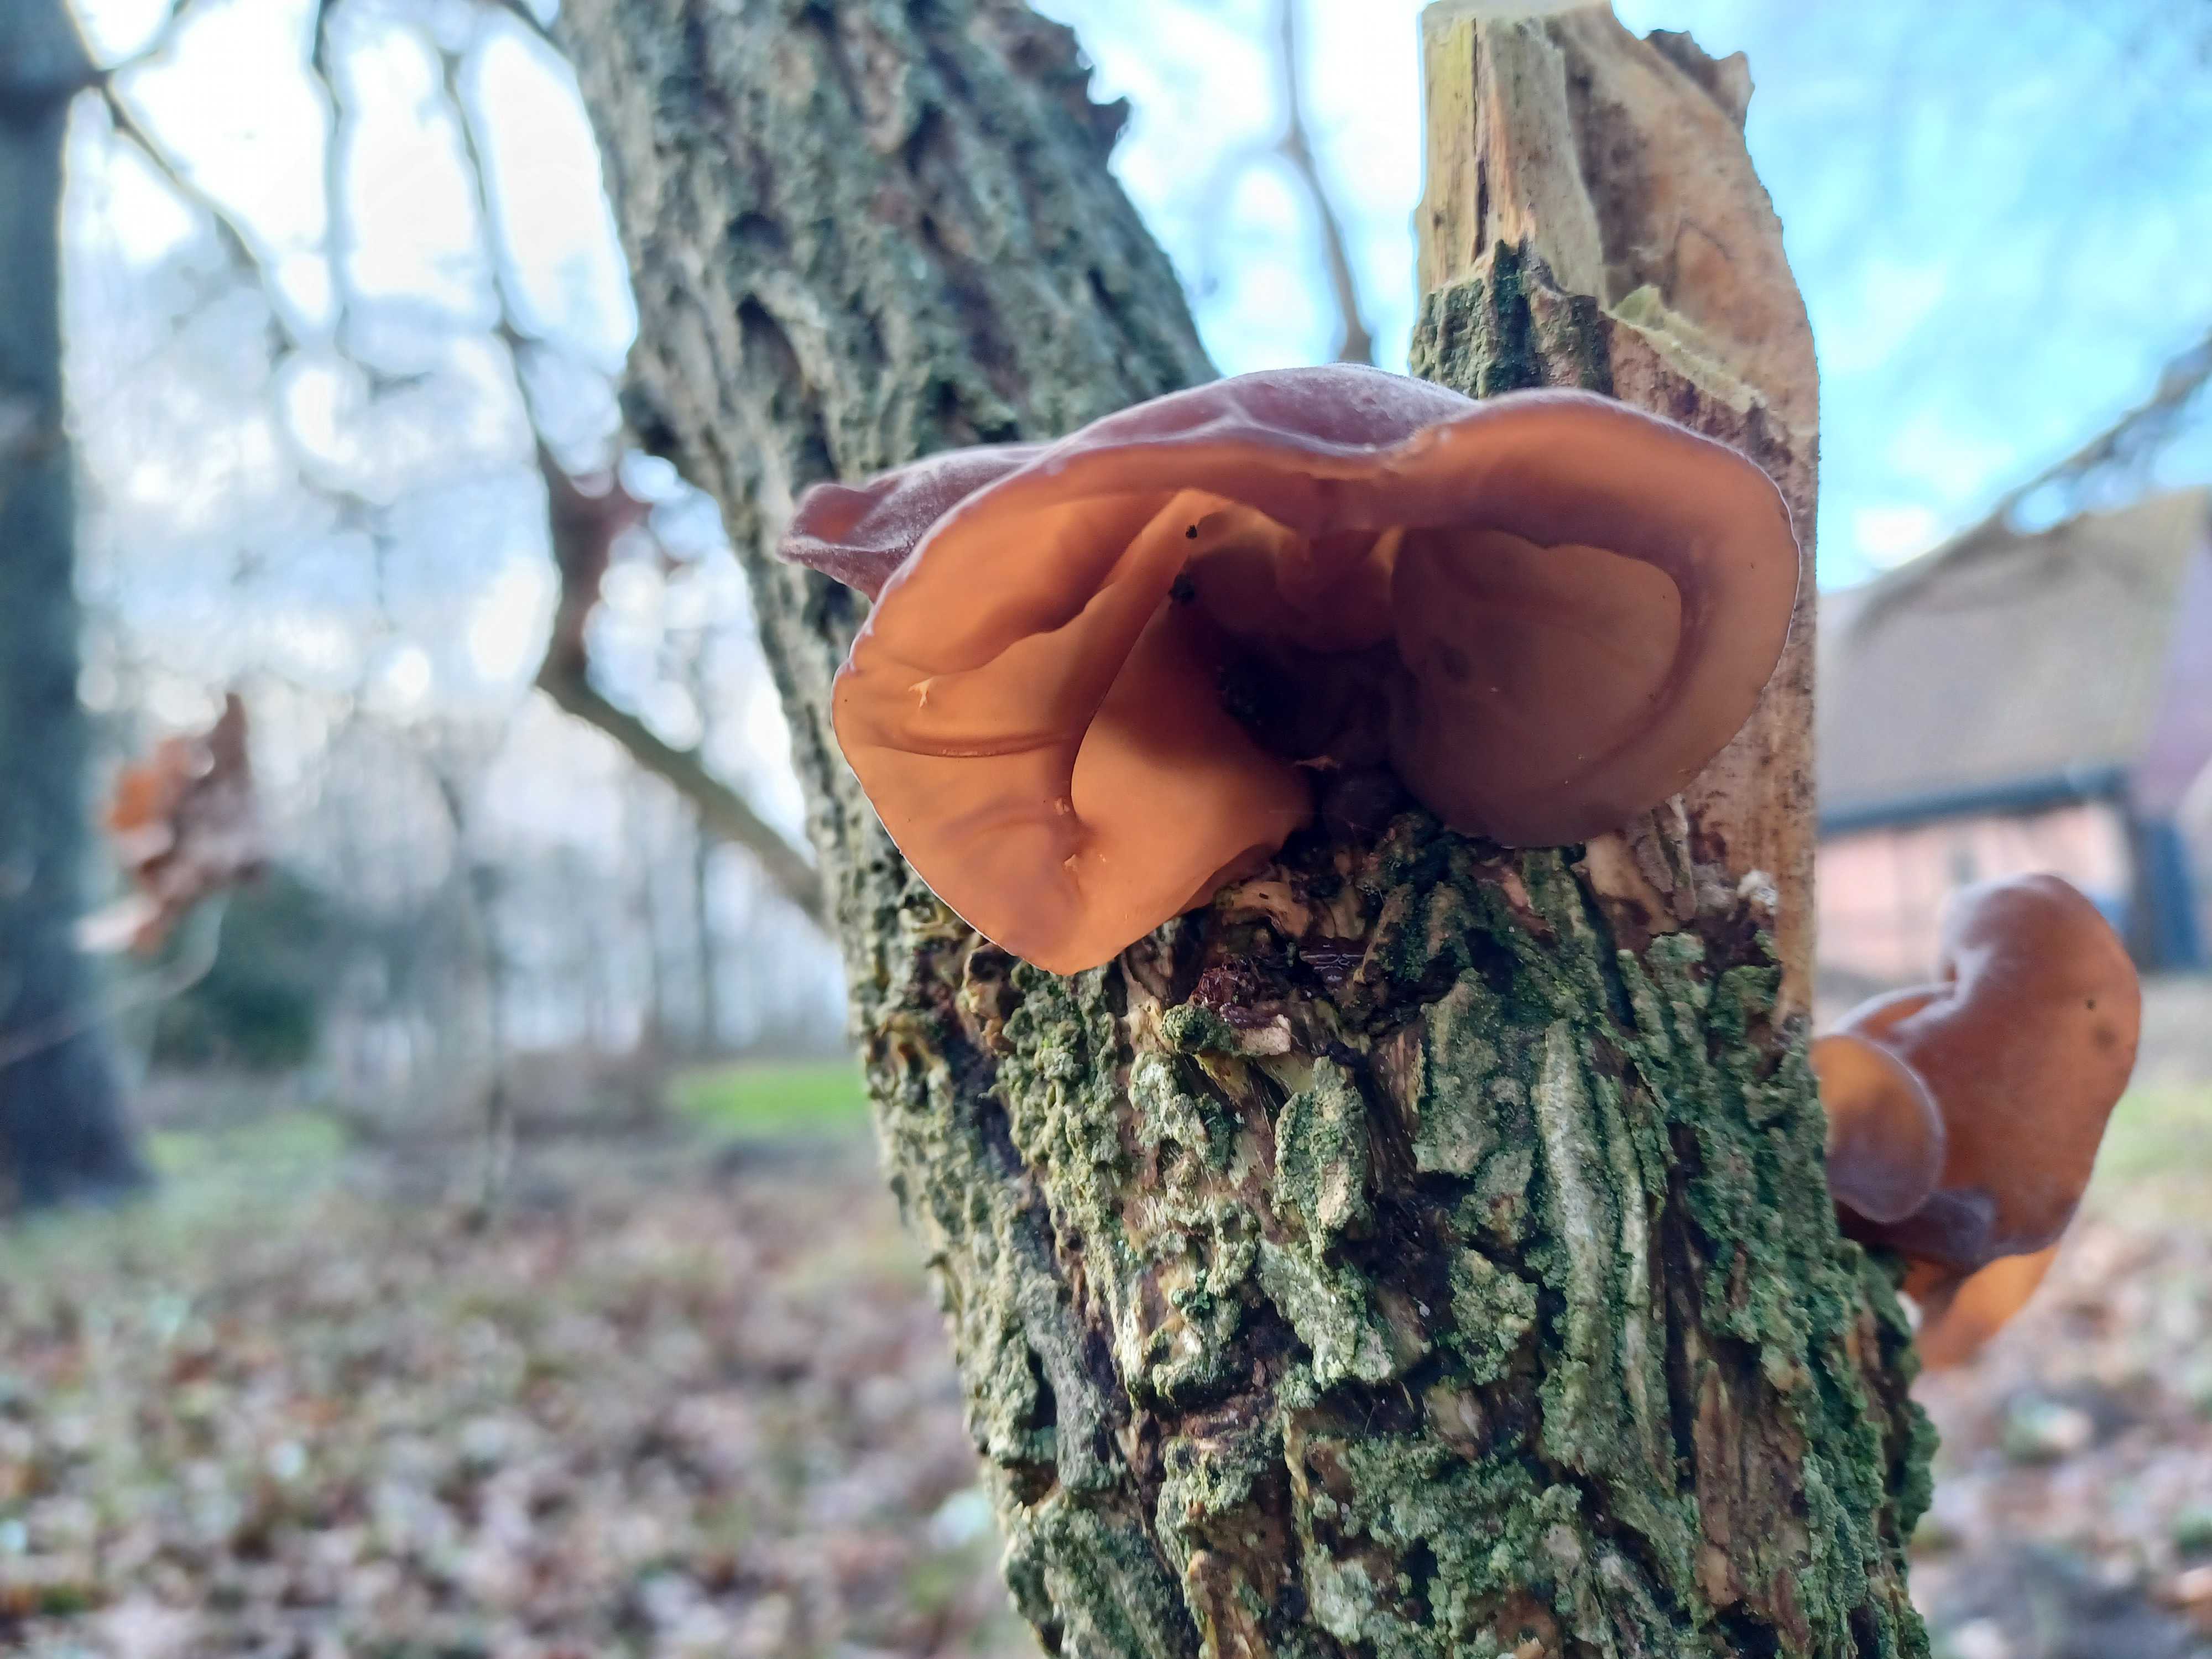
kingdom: Fungi
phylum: Basidiomycota
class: Agaricomycetes
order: Auriculariales
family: Auriculariaceae
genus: Auricularia
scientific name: Auricularia auricula-judae
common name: almindelig judasøre
